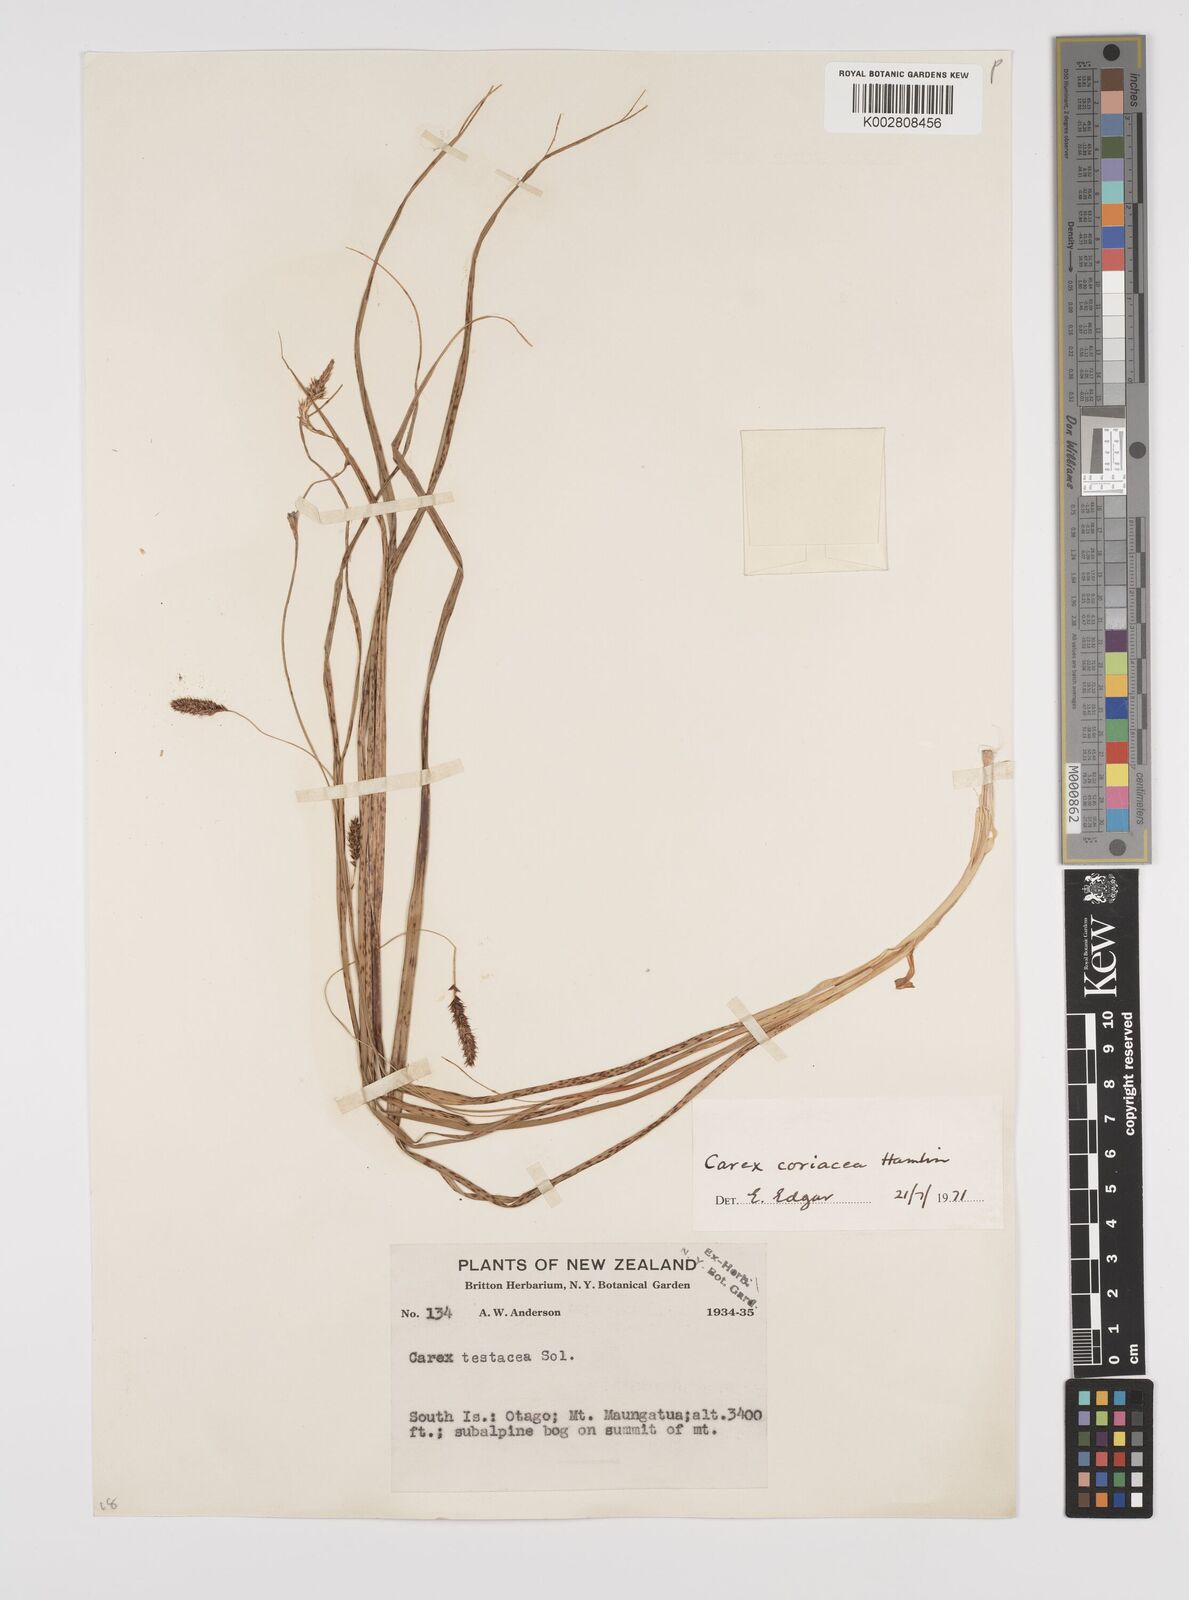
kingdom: Plantae
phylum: Tracheophyta
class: Liliopsida
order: Poales
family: Cyperaceae
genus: Carex
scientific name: Carex coriacea
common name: Rautahi
